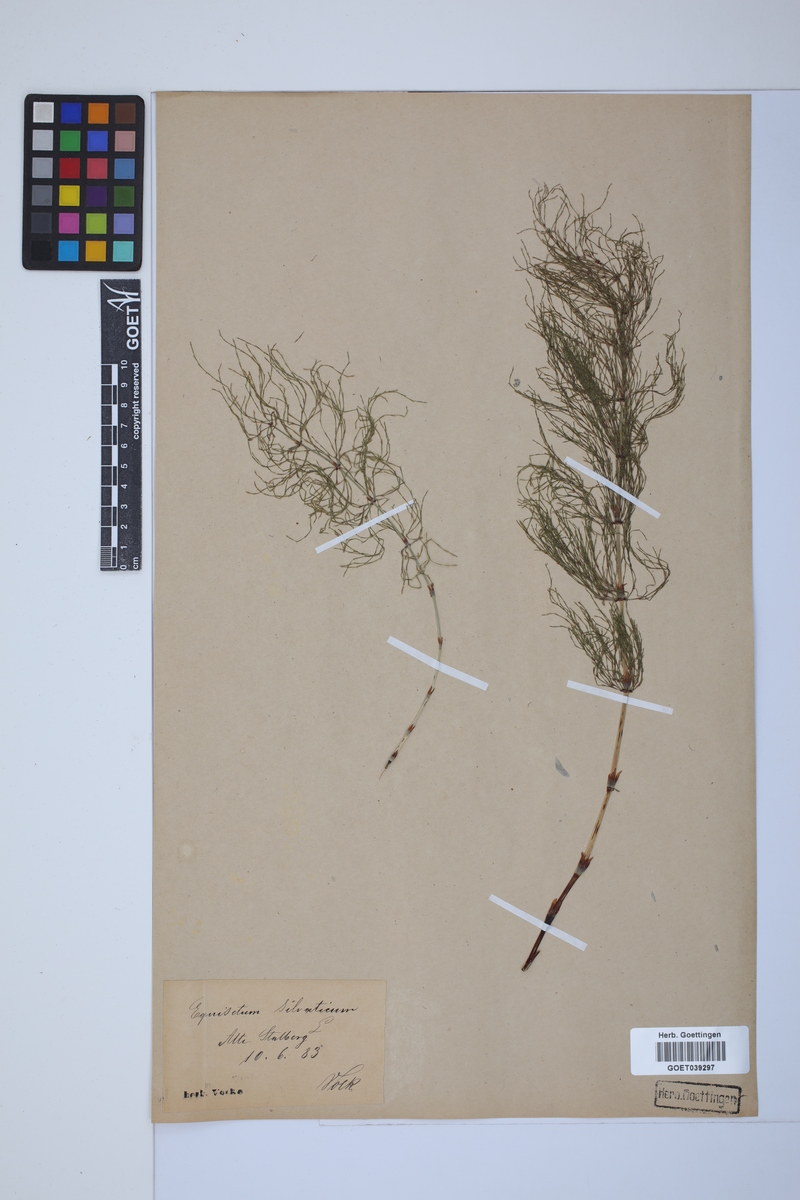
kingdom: Plantae
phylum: Tracheophyta
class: Polypodiopsida
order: Equisetales
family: Equisetaceae
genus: Equisetum
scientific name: Equisetum sylvaticum
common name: Wood horsetail
